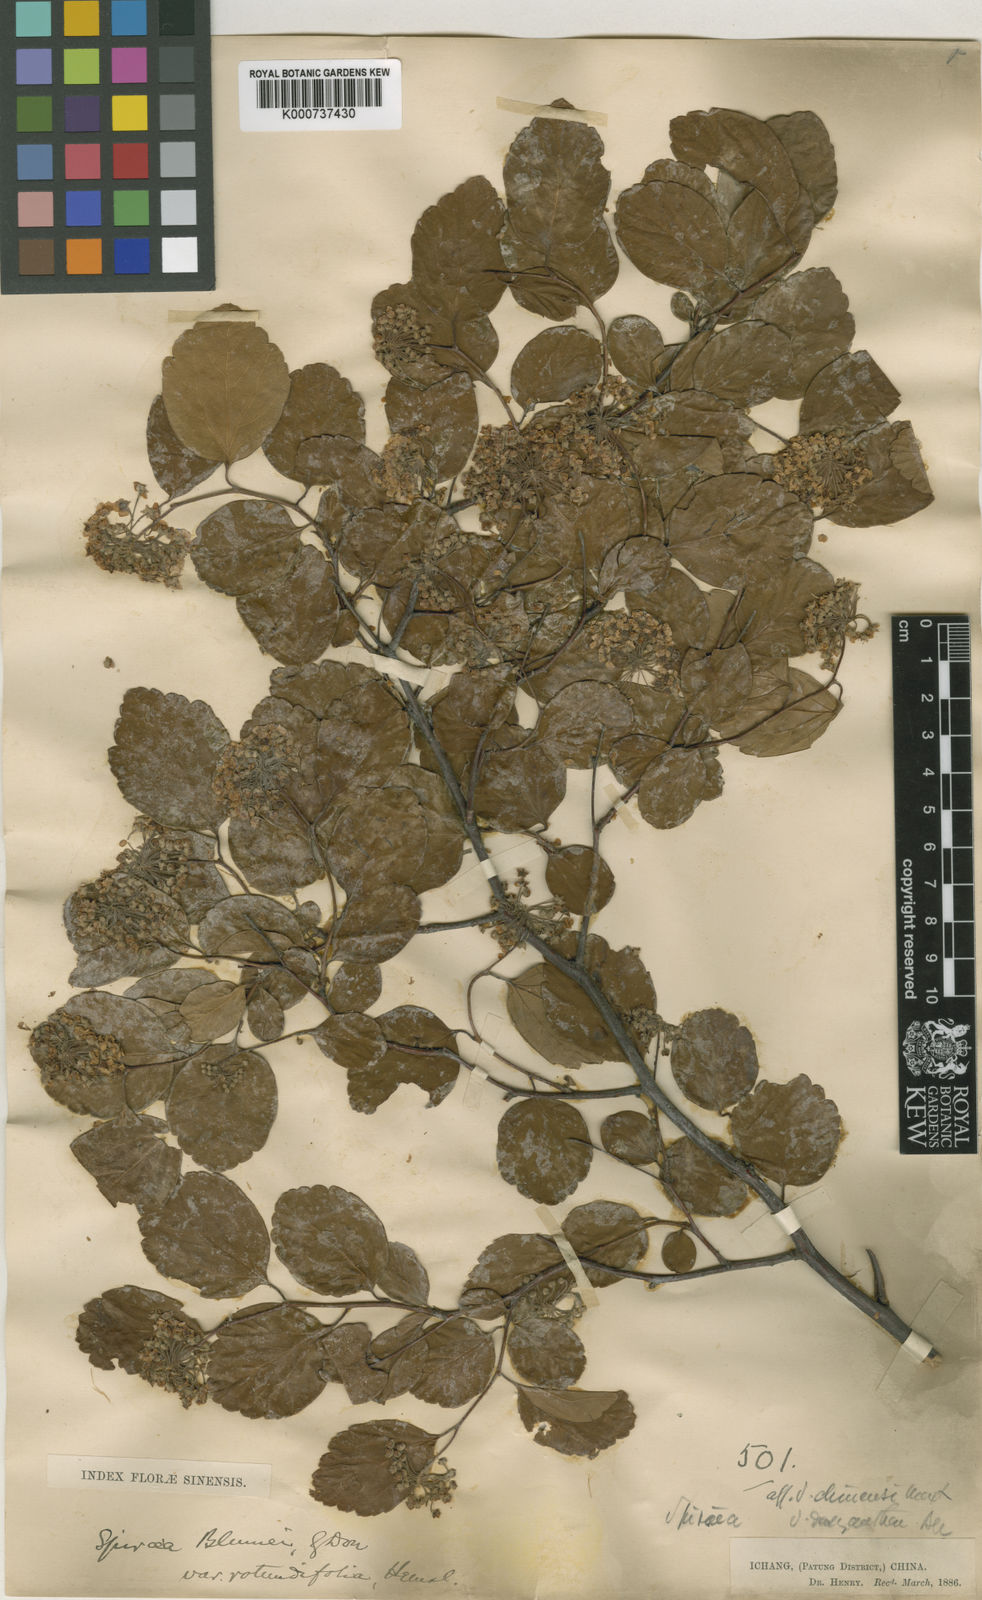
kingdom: Plantae
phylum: Tracheophyta
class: Magnoliopsida
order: Rosales
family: Rosaceae
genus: Spiraea
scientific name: Spiraea
